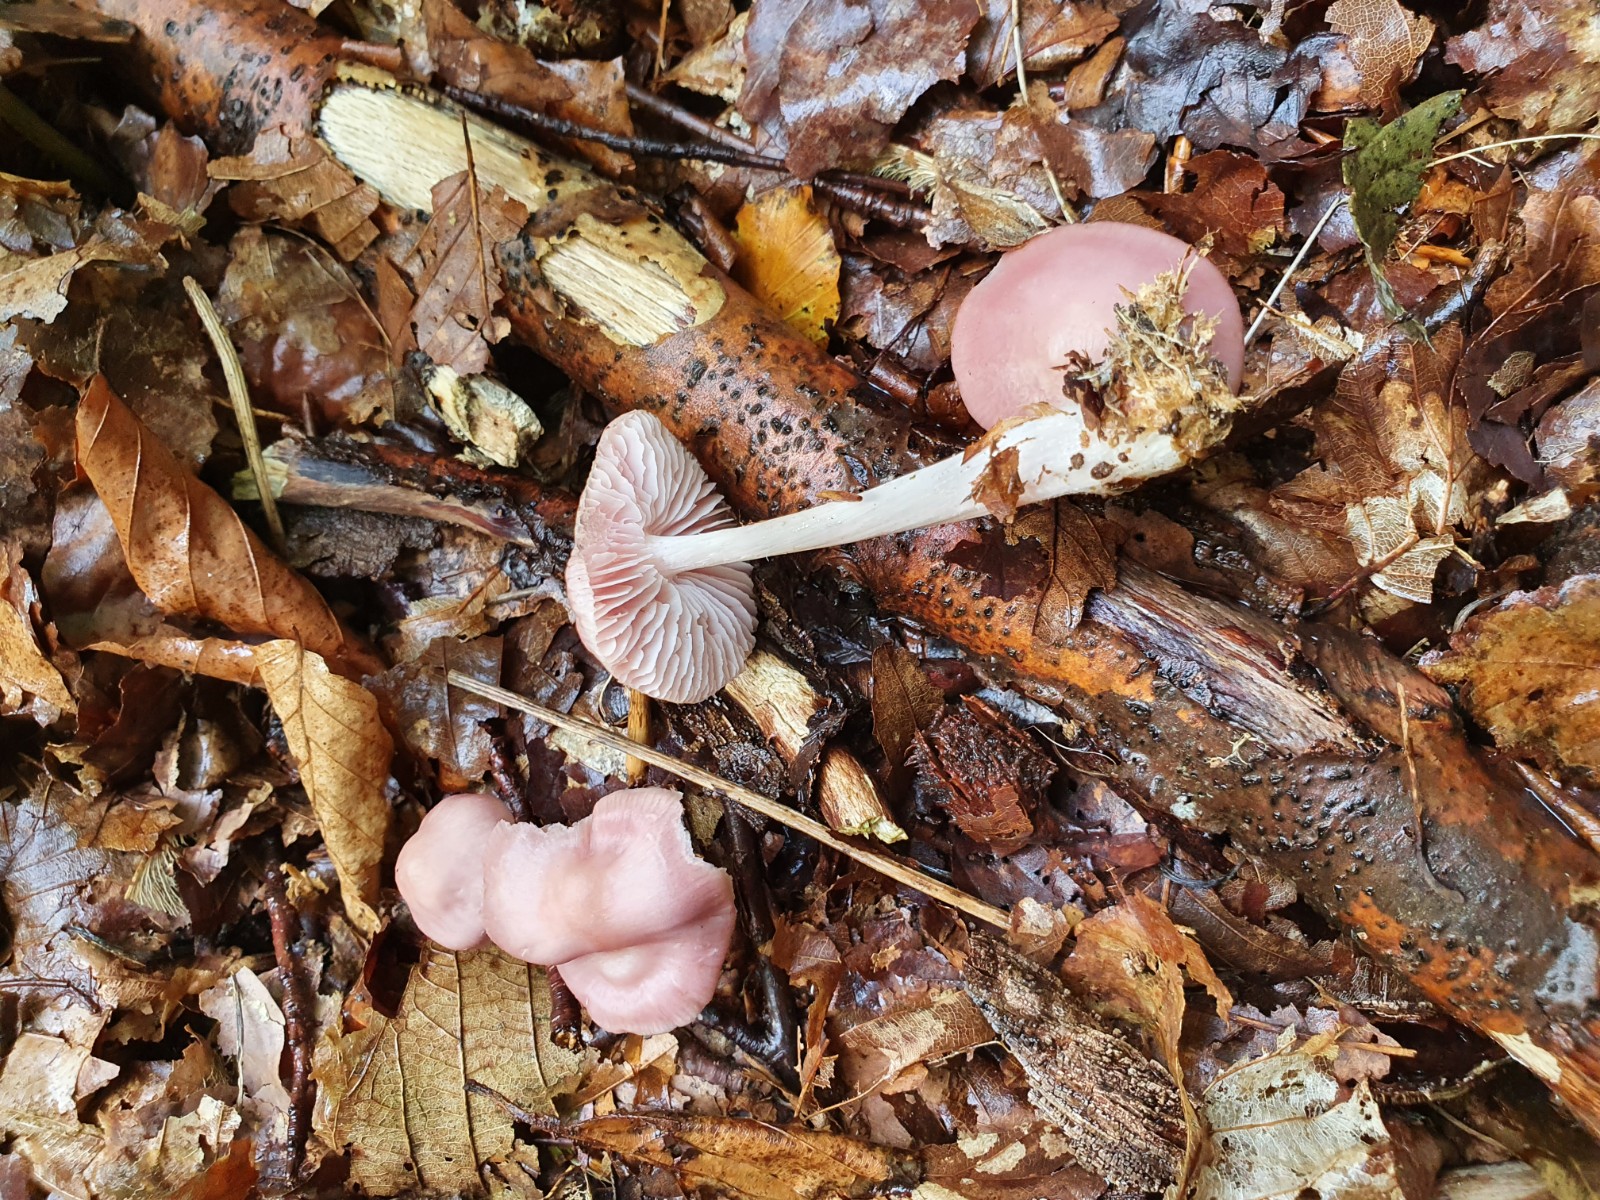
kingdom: Fungi
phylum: Basidiomycota
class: Agaricomycetes
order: Agaricales
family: Mycenaceae
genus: Mycena
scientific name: Mycena rosea
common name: rosa huesvamp
